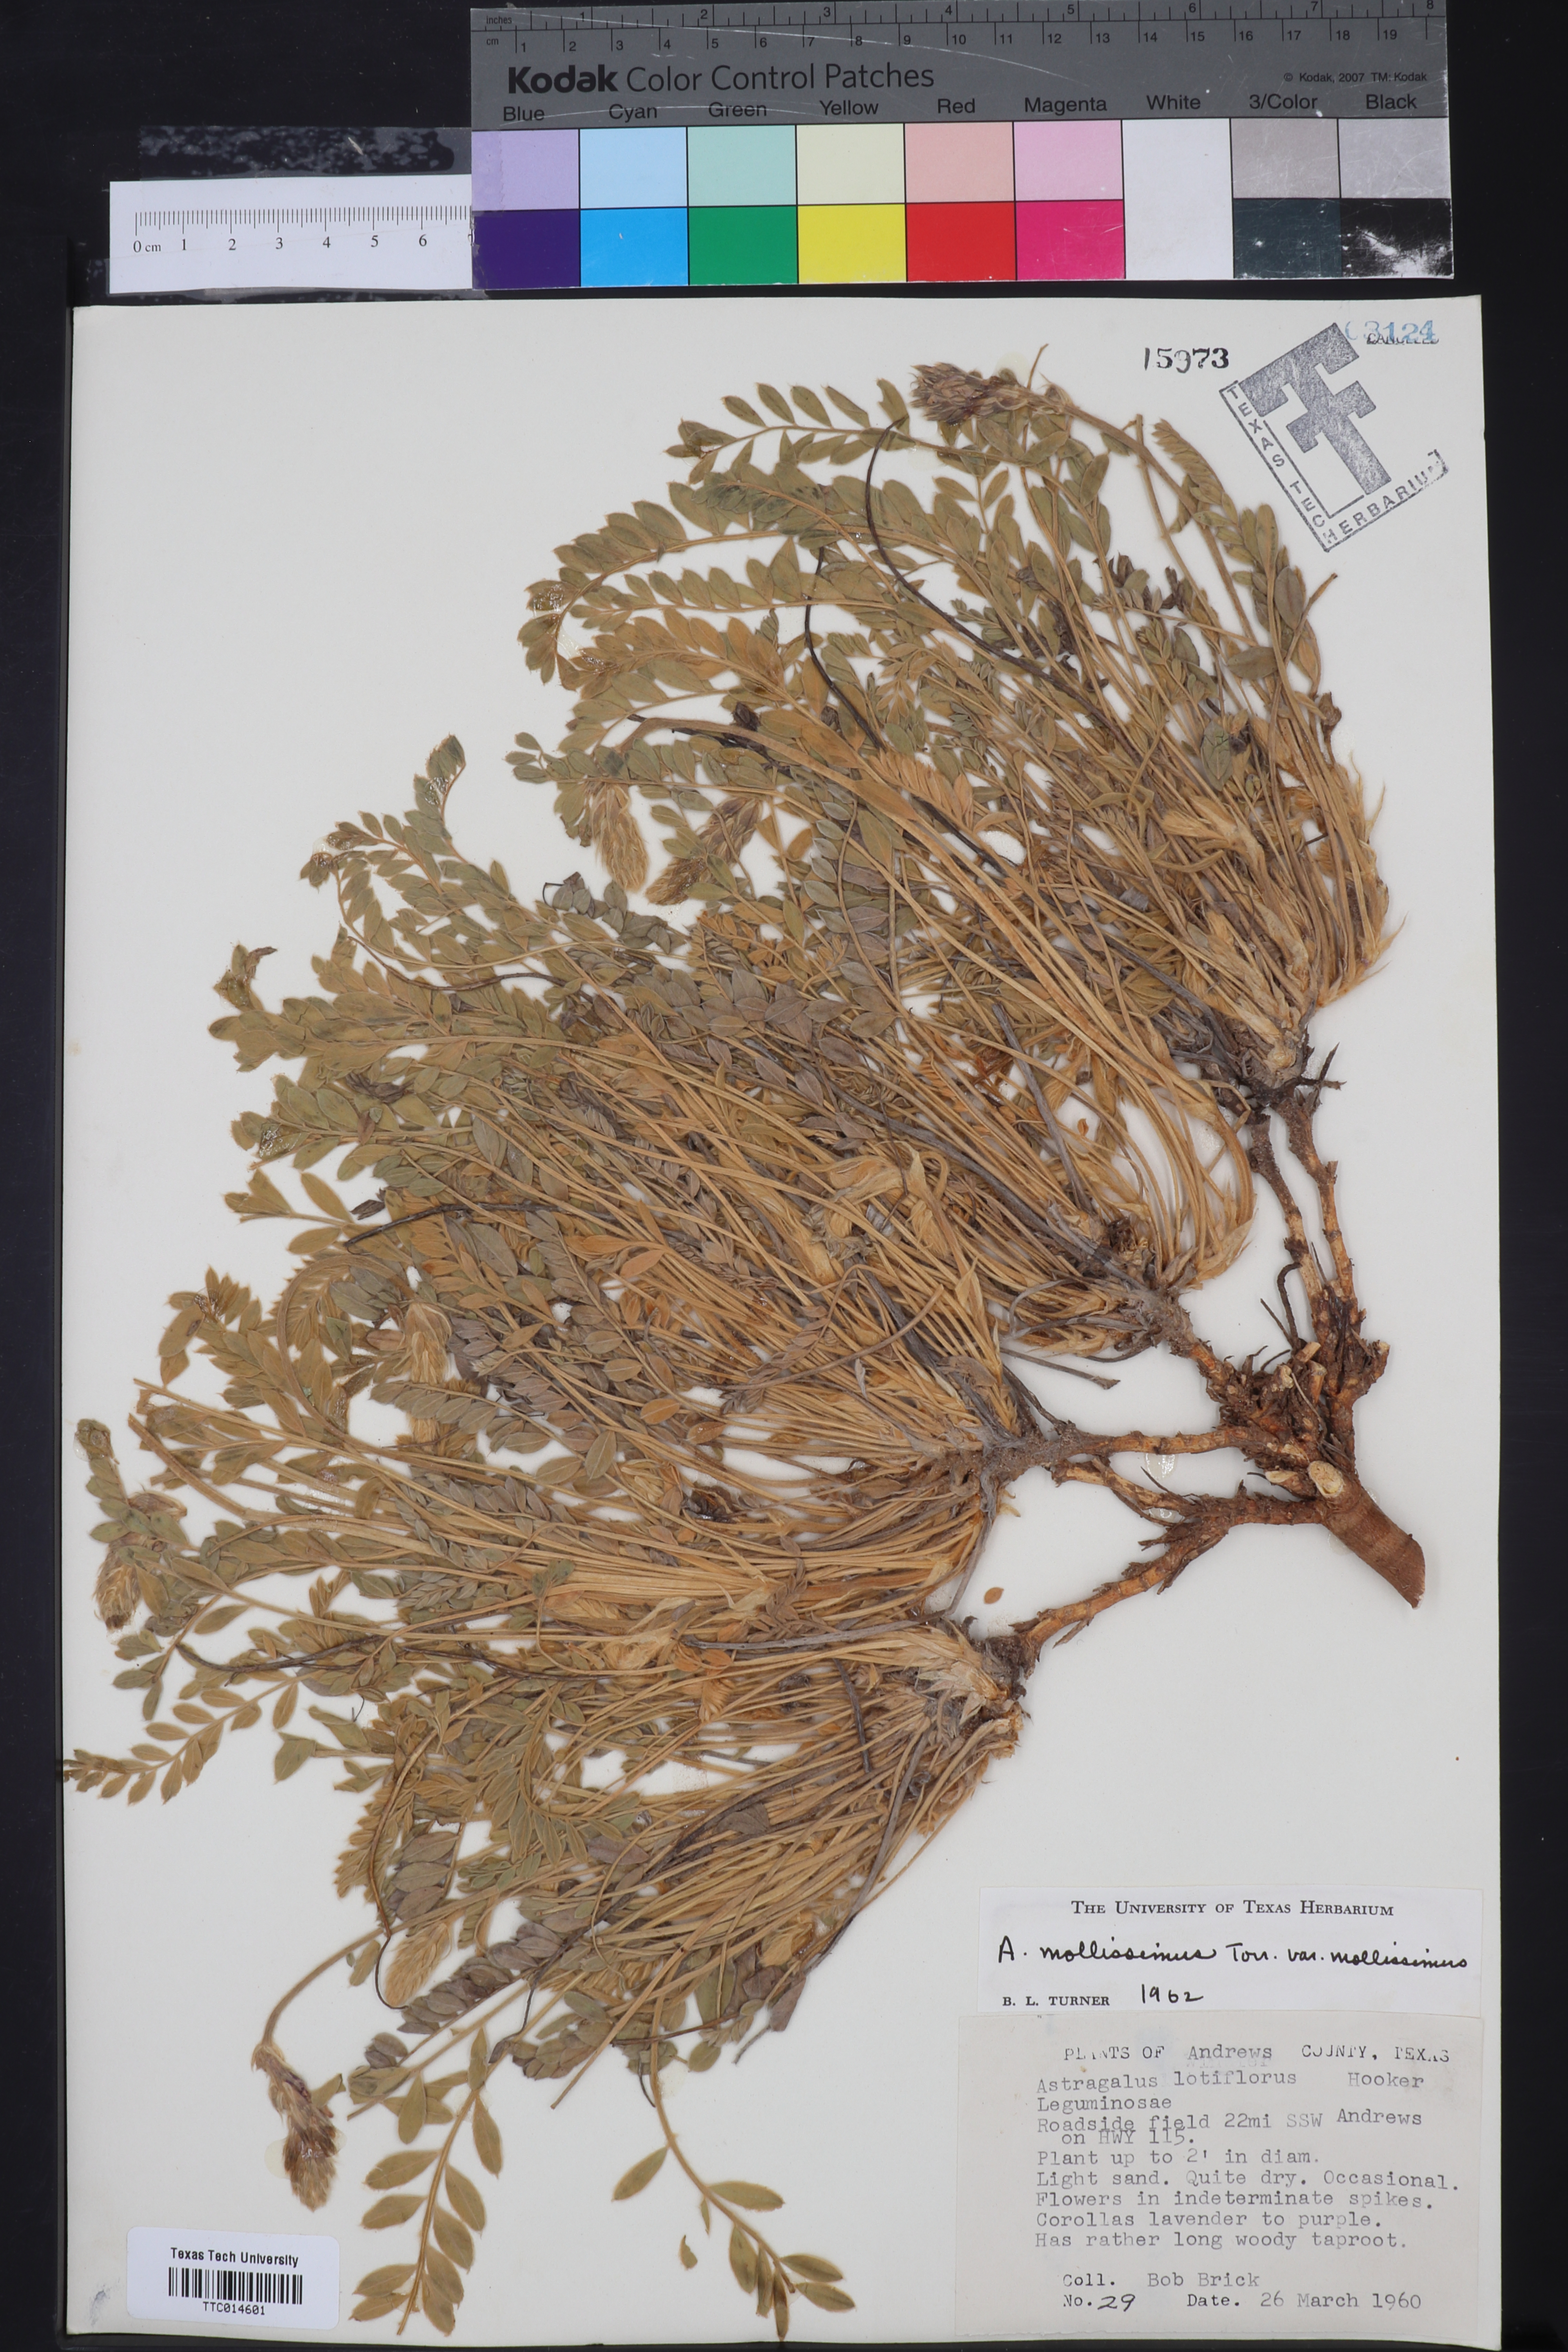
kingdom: Plantae
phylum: Tracheophyta
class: Magnoliopsida
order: Fabales
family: Fabaceae
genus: Astragalus
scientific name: Astragalus missouriensis
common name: Missouri milk-vetch
